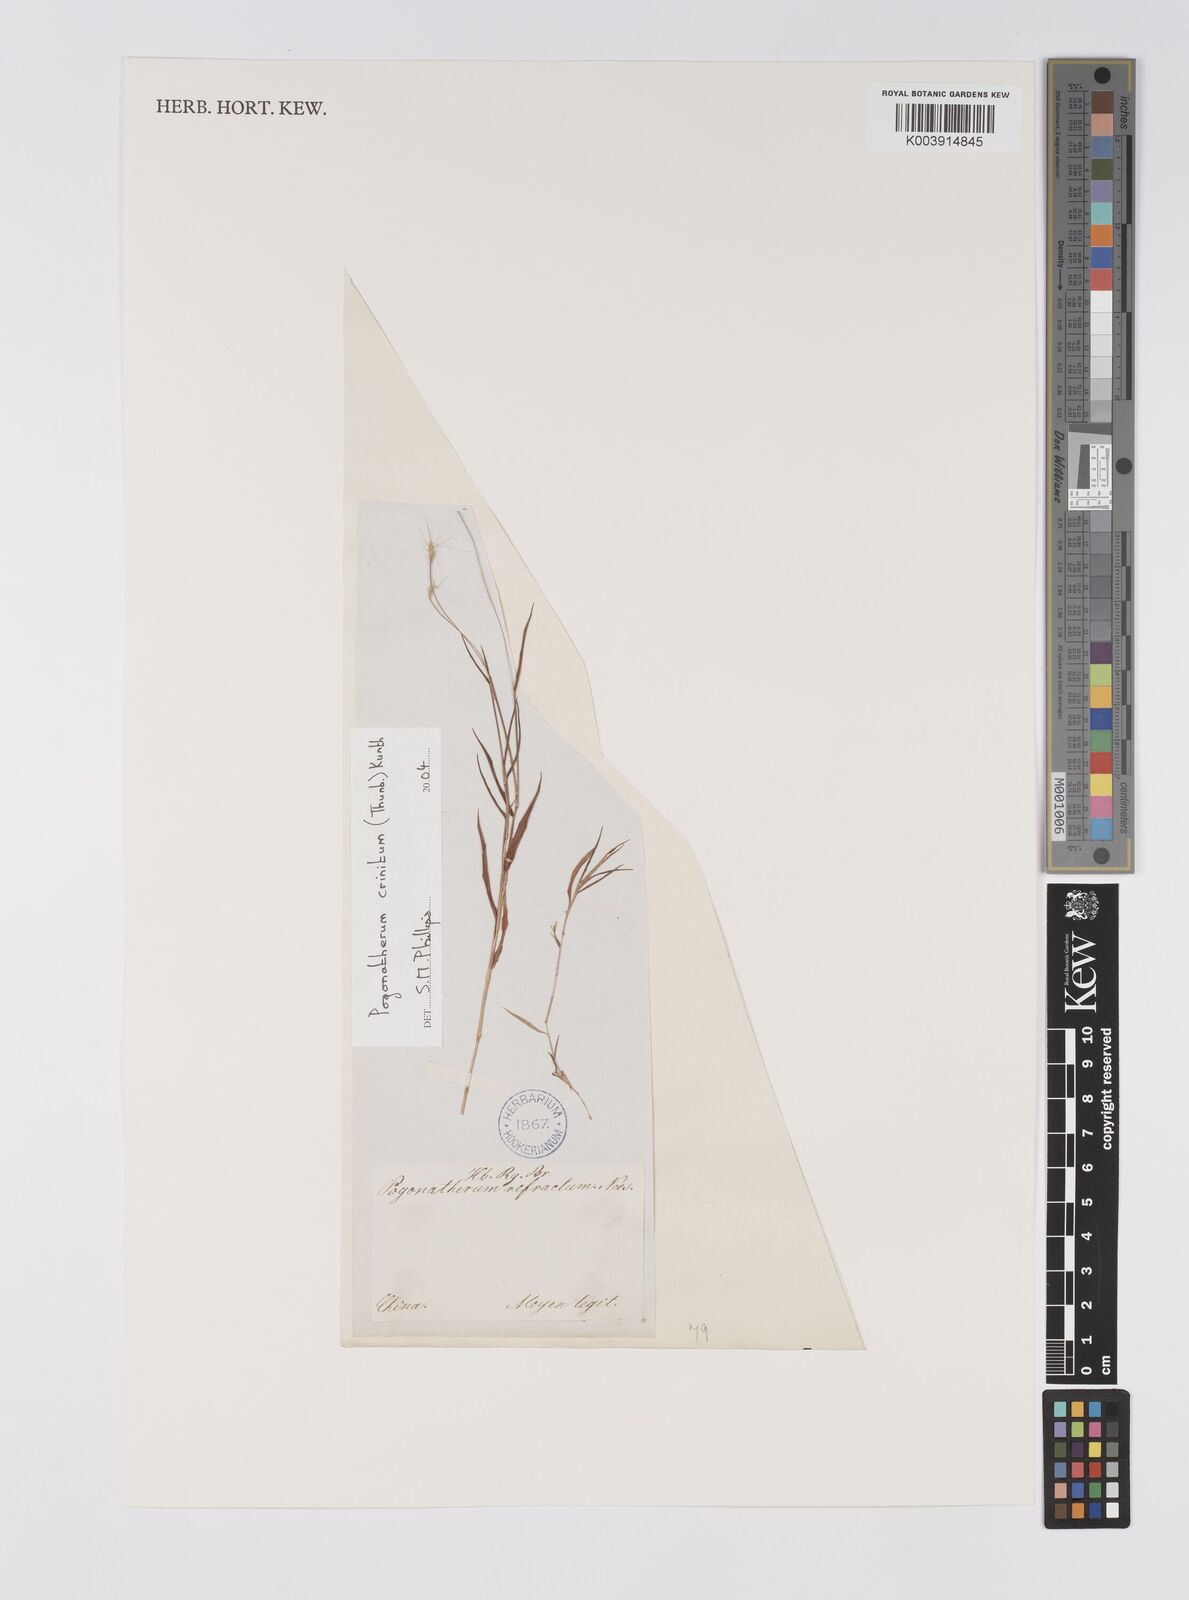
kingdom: Plantae
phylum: Tracheophyta
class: Liliopsida
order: Poales
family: Poaceae
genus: Pogonatherum
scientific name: Pogonatherum crinitum
